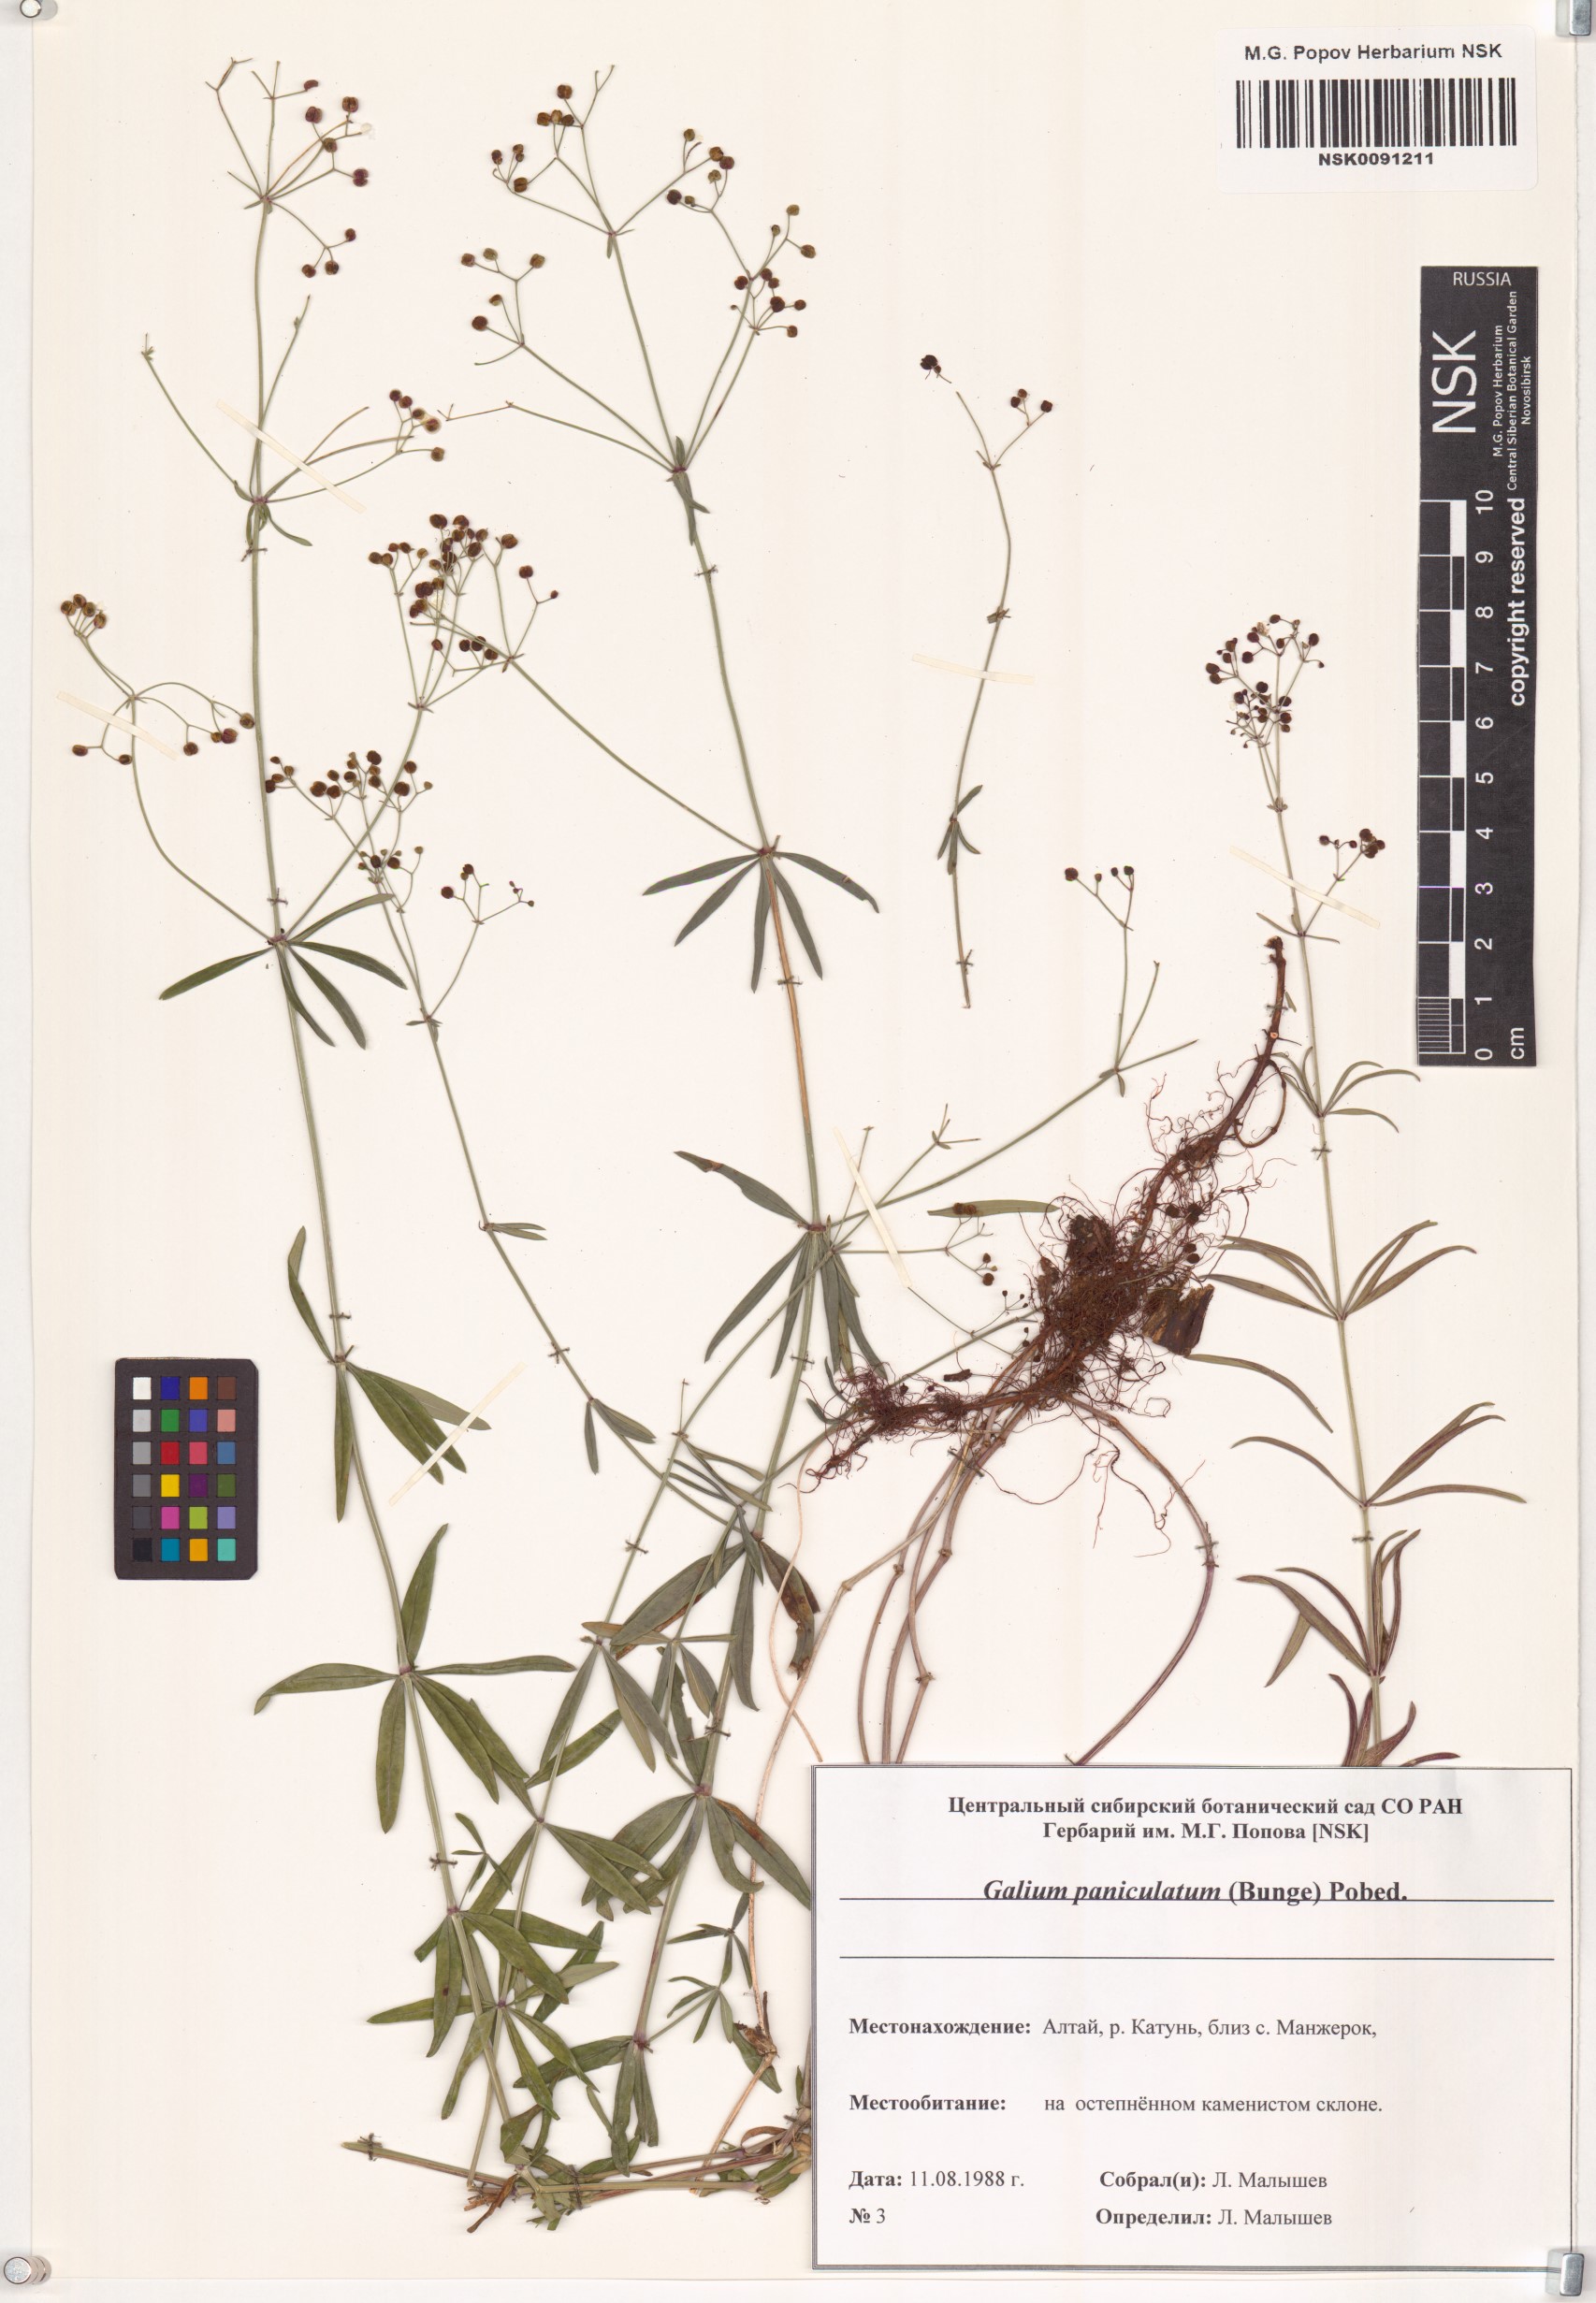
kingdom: Plantae
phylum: Tracheophyta
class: Magnoliopsida
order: Gentianales
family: Rubiaceae
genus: Galium
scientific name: Galium paniculatum
